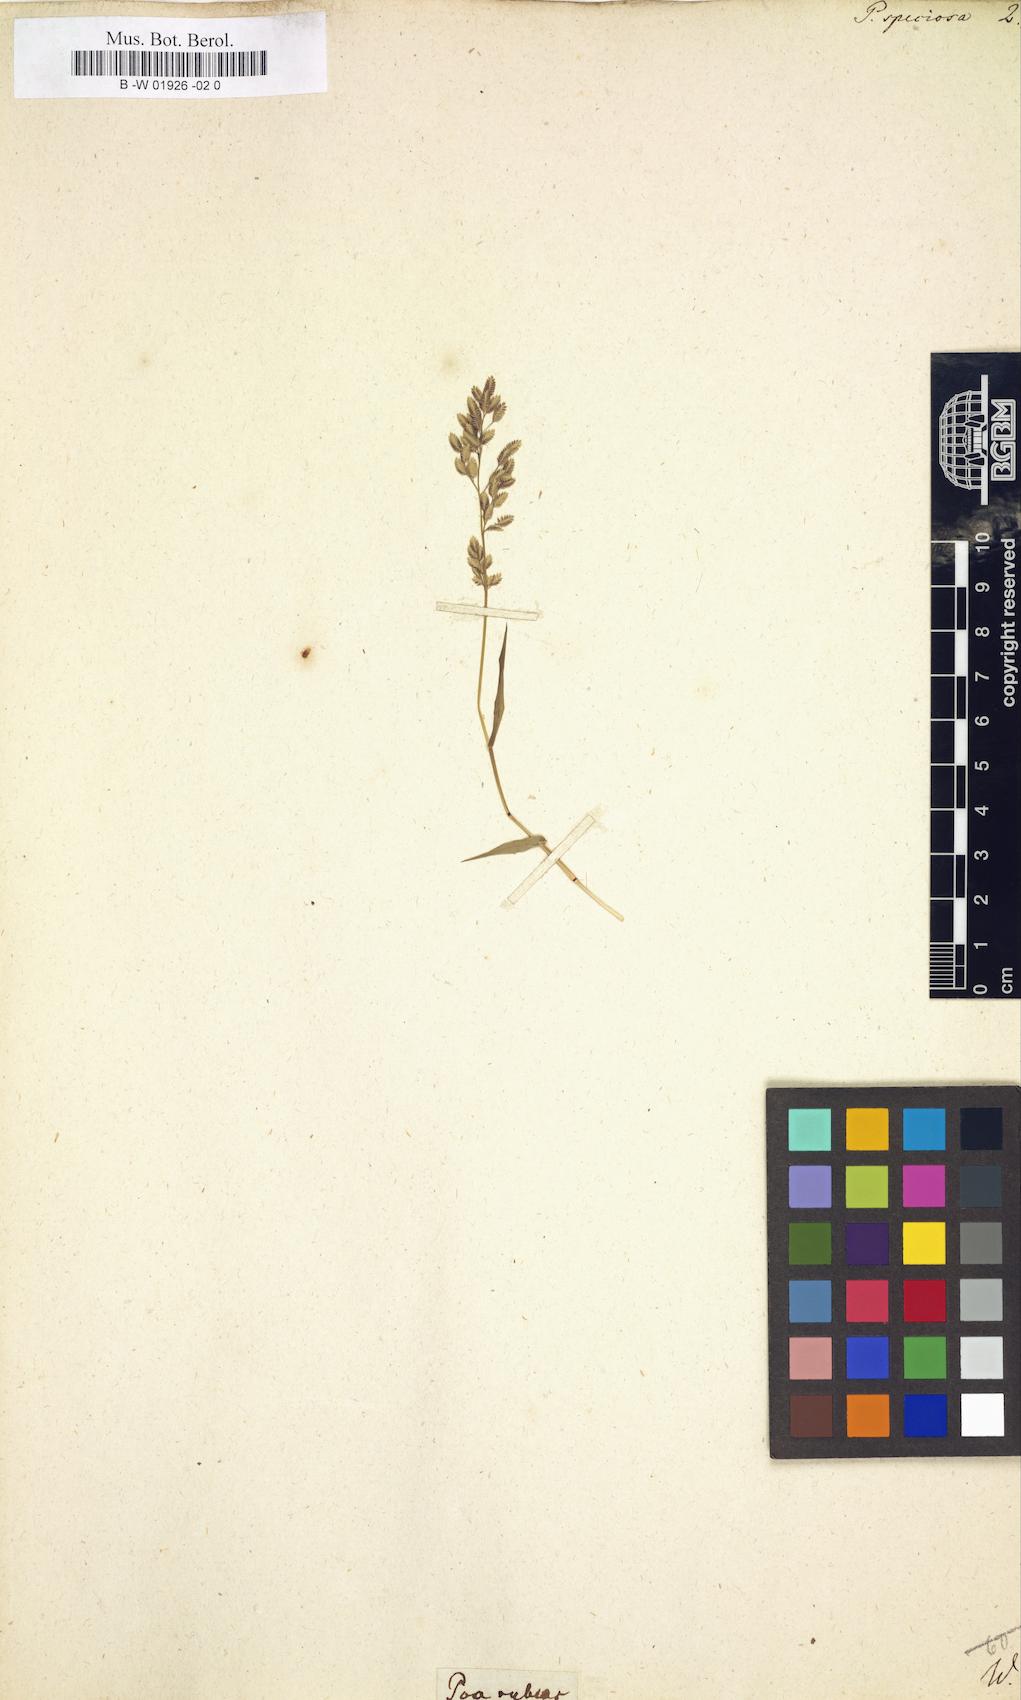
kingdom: Plantae
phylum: Tracheophyta
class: Liliopsida
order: Poales
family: Poaceae
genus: Eragrostis
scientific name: Eragrostis
